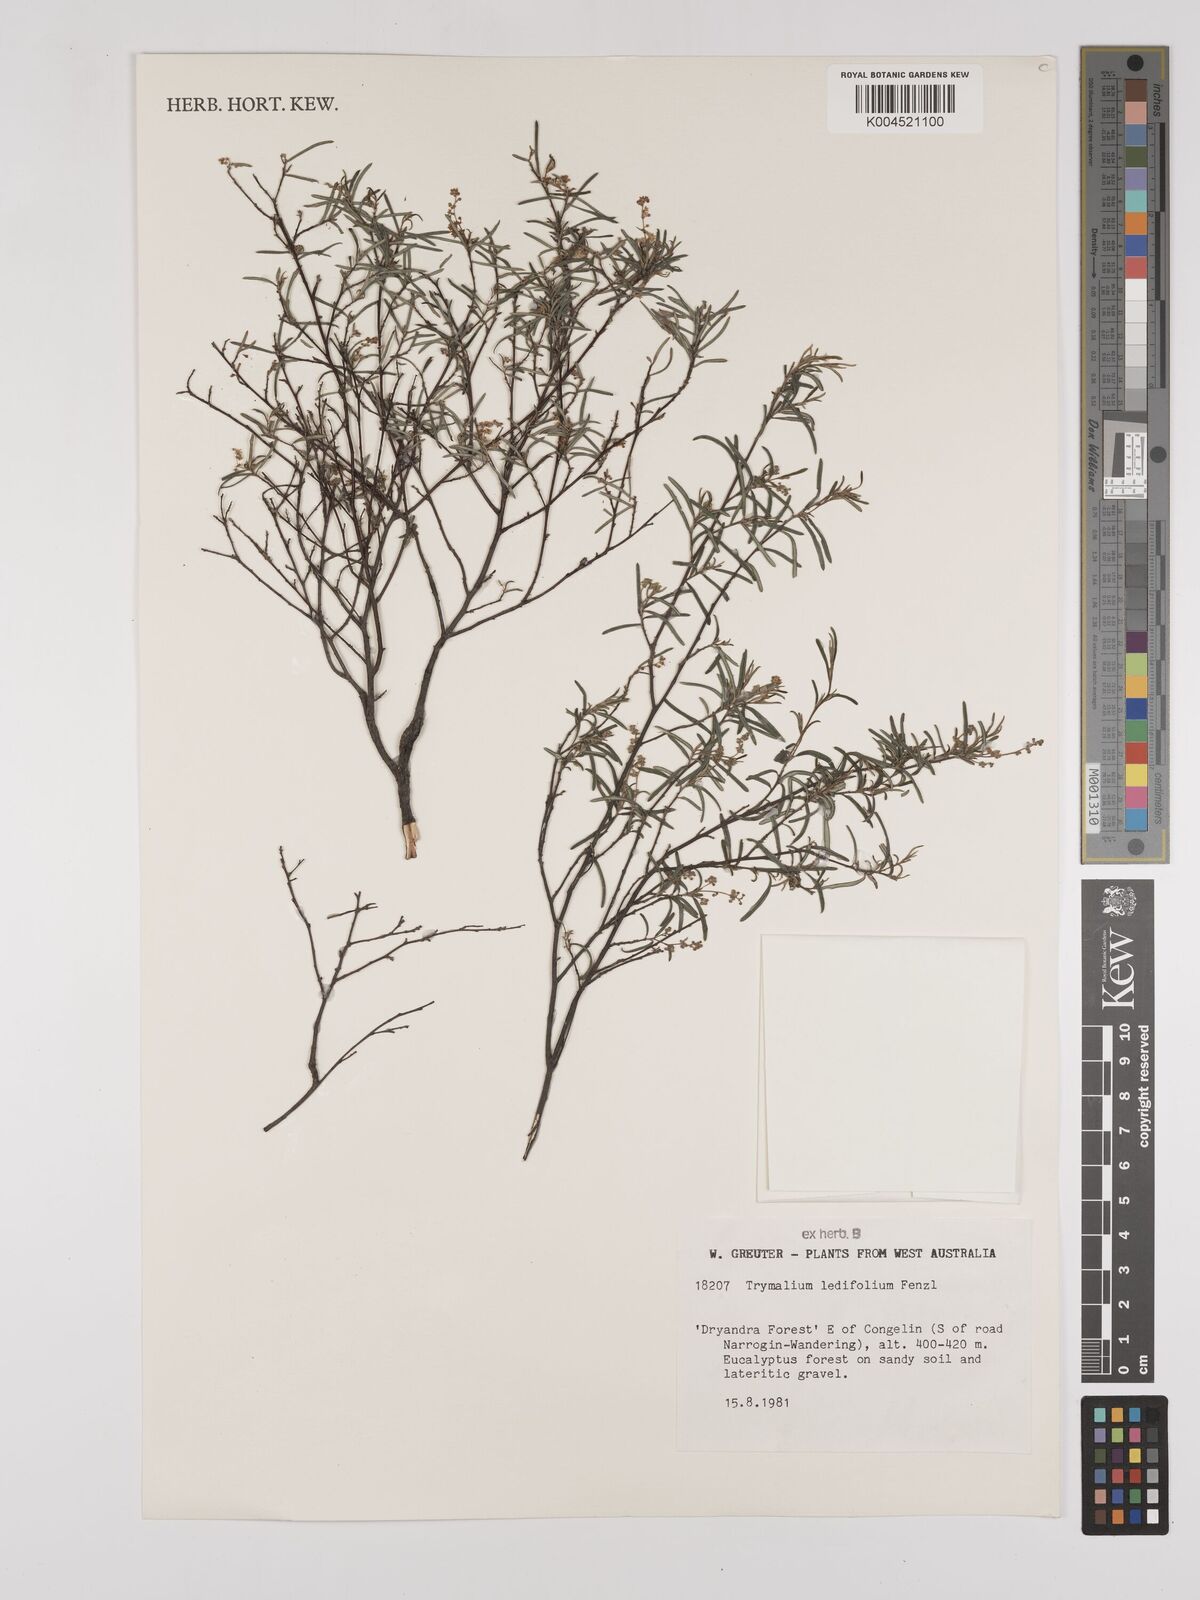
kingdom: Plantae
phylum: Tracheophyta
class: Magnoliopsida
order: Rosales
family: Rhamnaceae
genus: Trymalium
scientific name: Trymalium ledifolium
